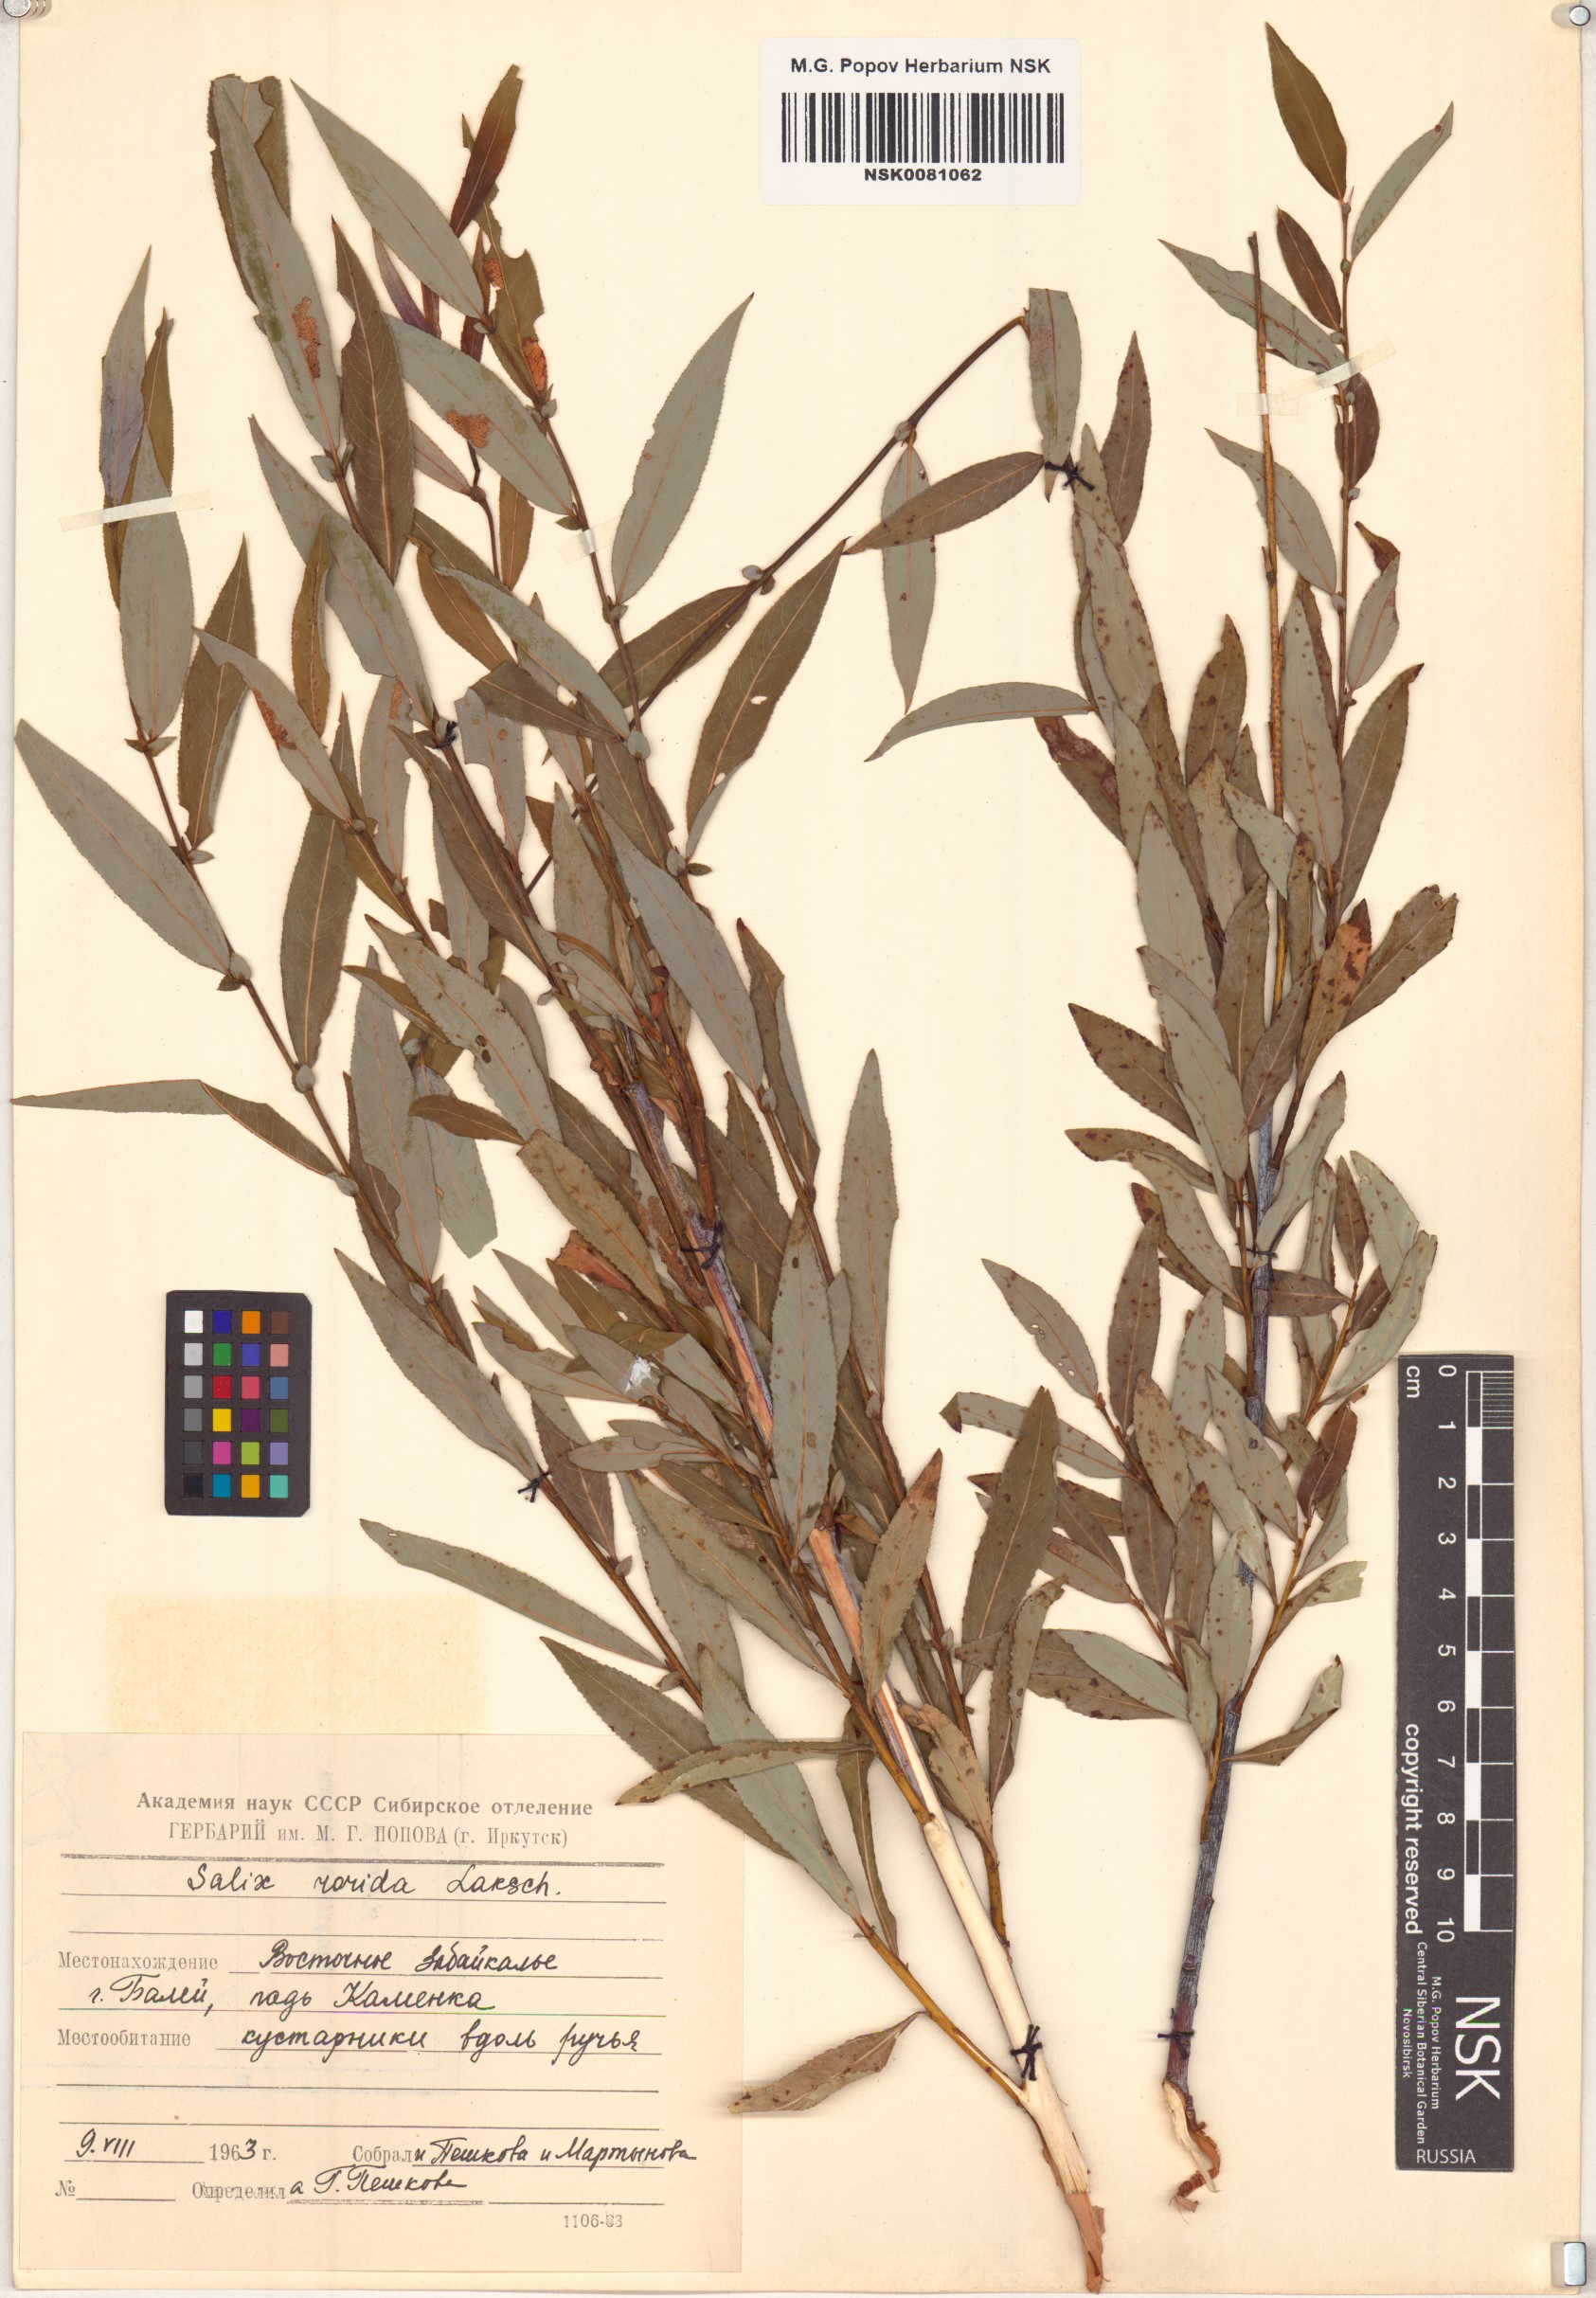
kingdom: Plantae
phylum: Tracheophyta
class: Magnoliopsida
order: Malpighiales
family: Salicaceae
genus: Salix
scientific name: Salix rorida
